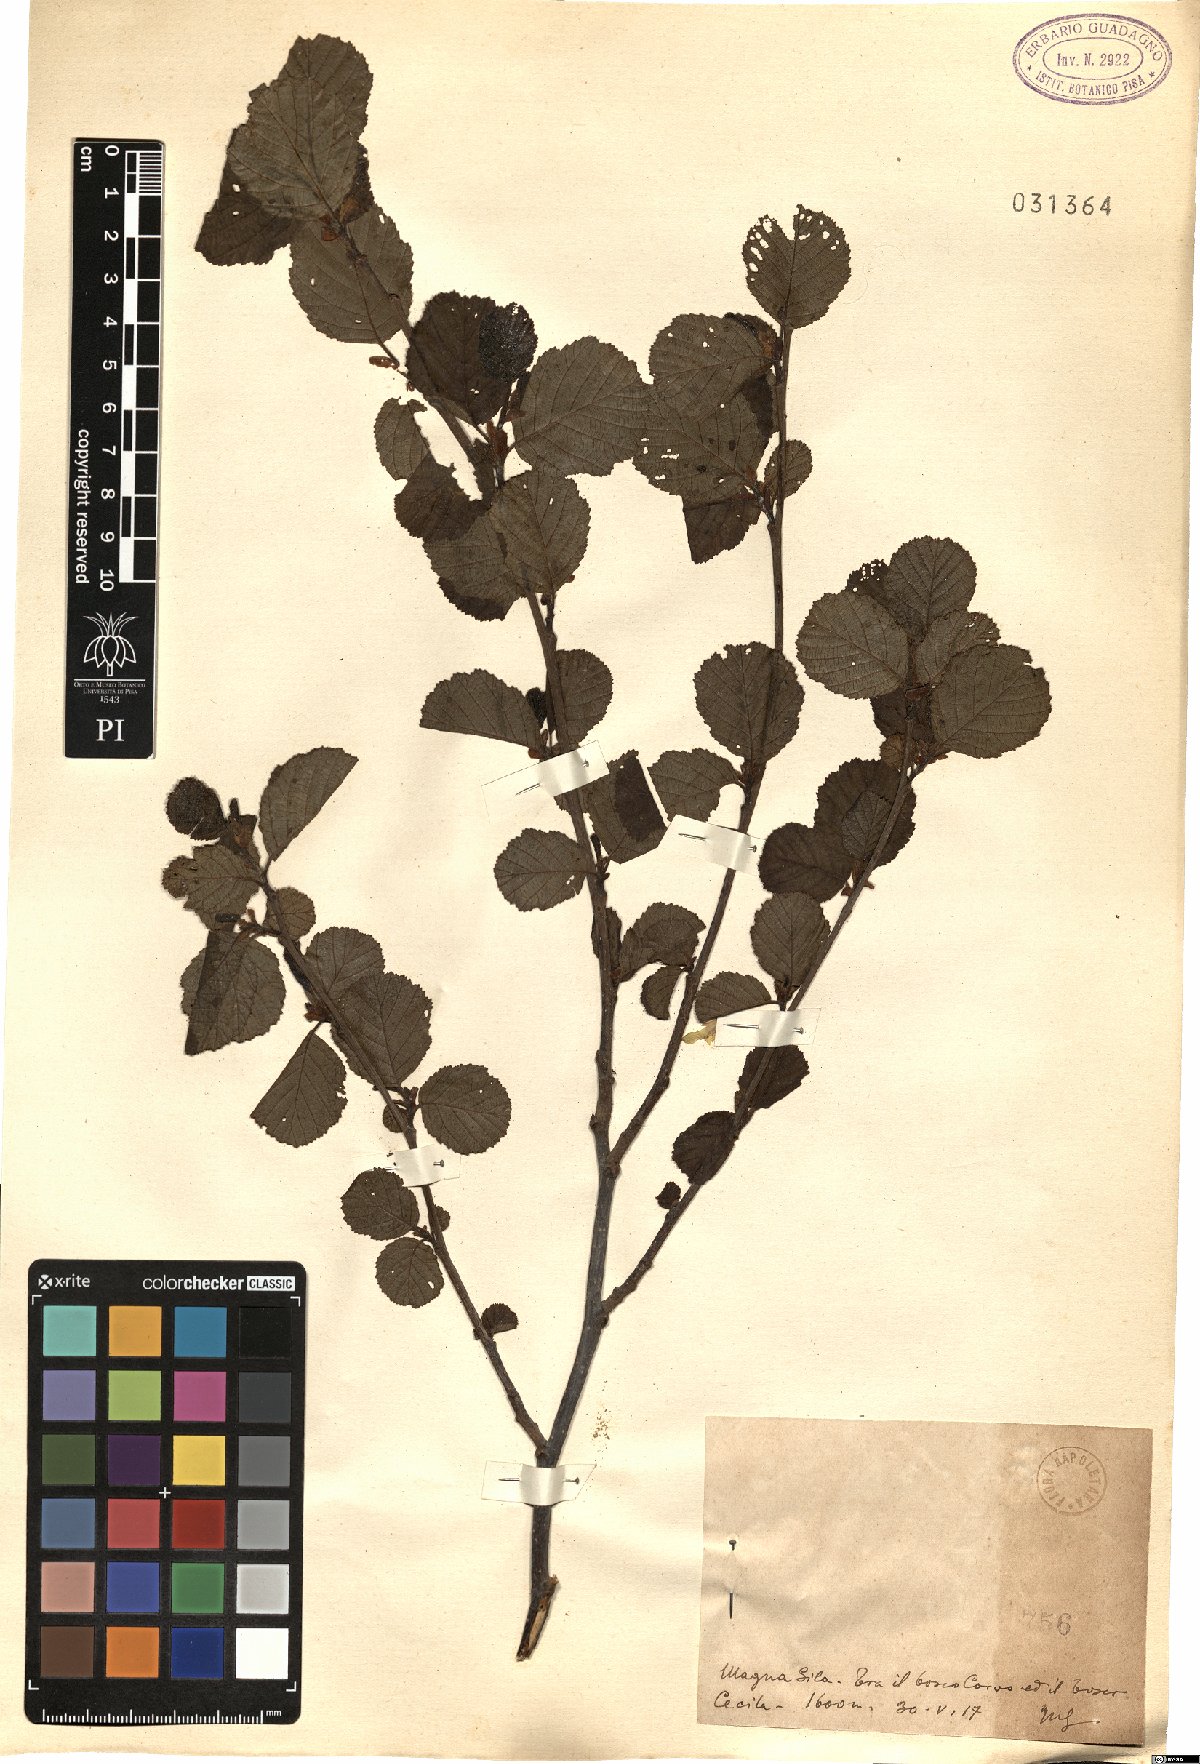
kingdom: Plantae
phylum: Tracheophyta
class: Magnoliopsida
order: Fagales
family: Betulaceae
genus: Alnus
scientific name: Alnus
